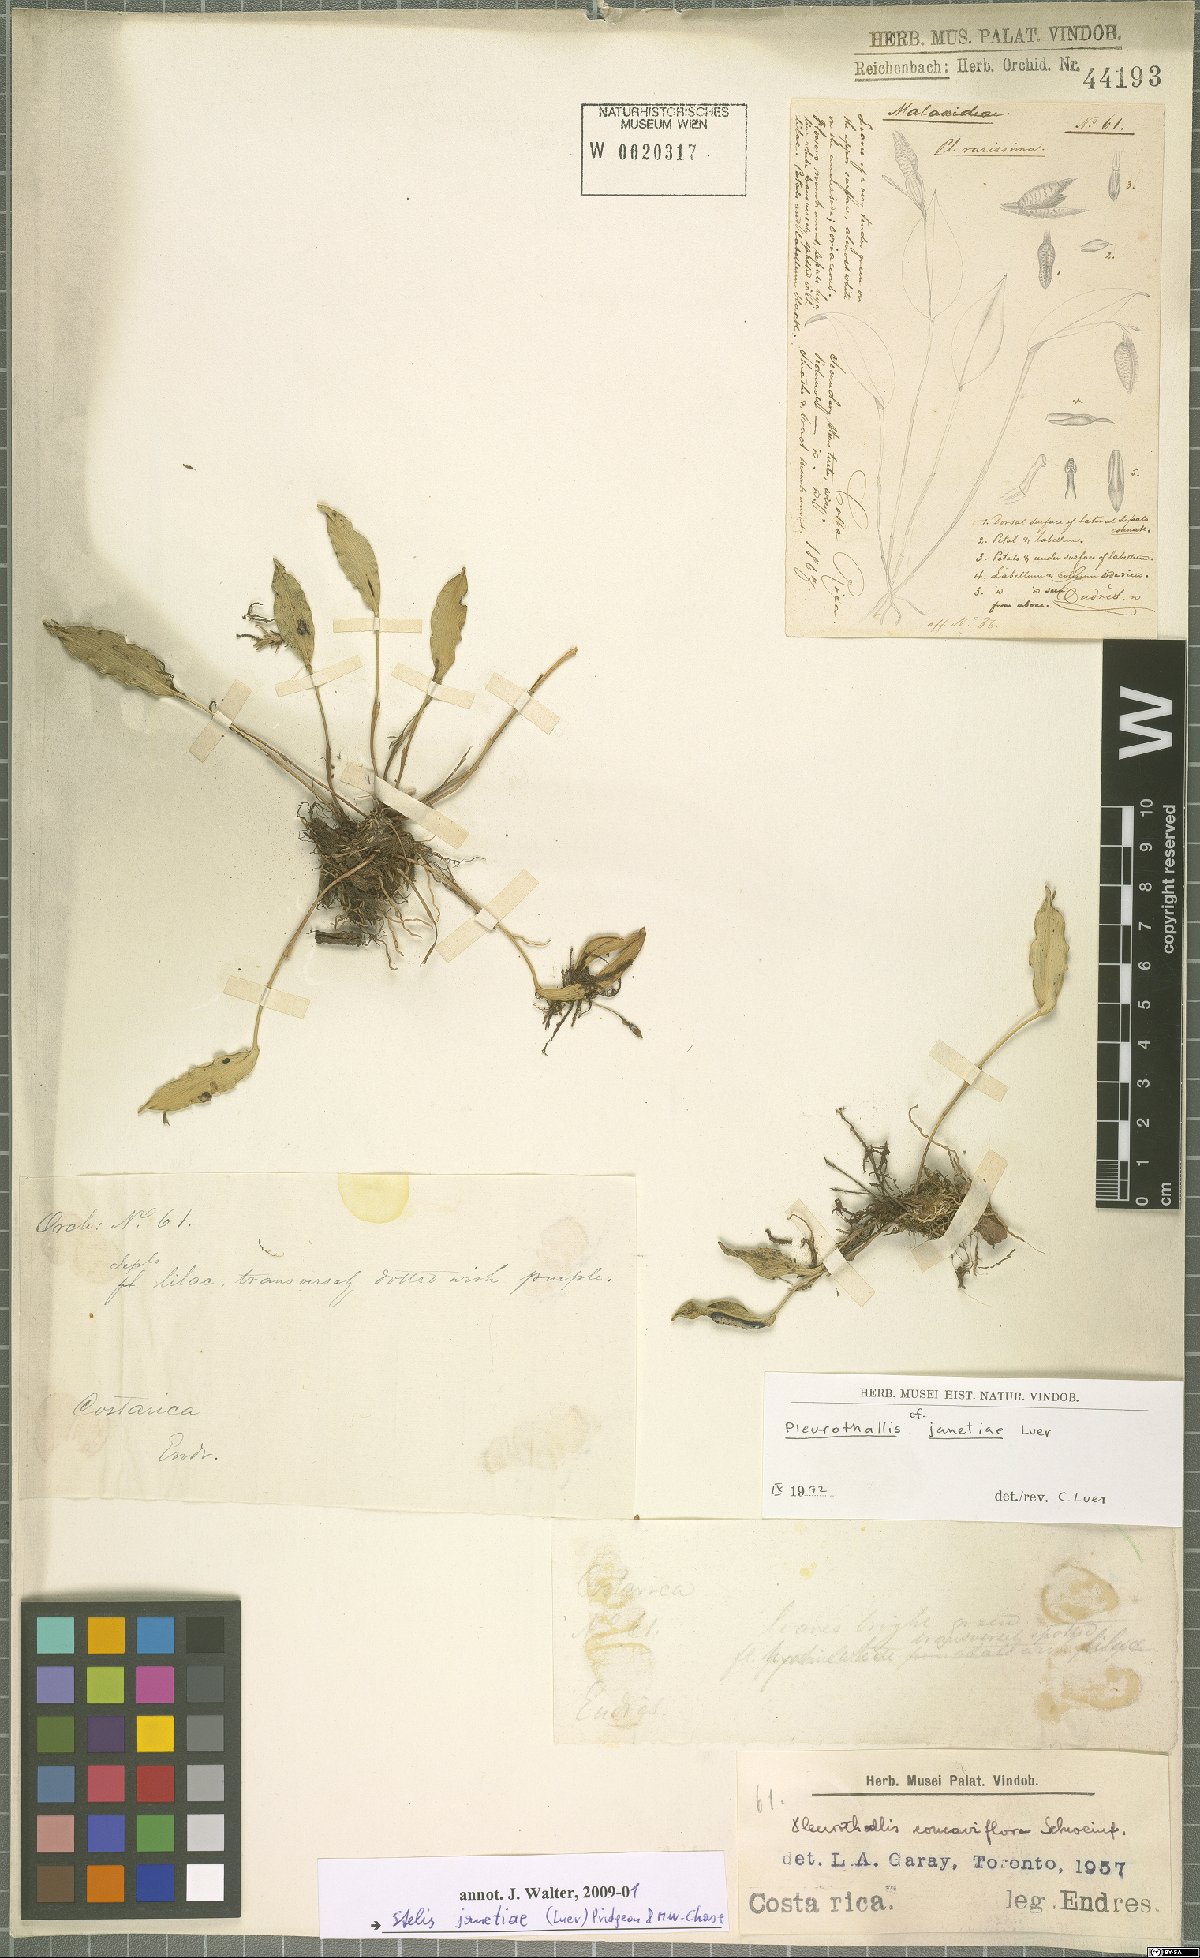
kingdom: Plantae
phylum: Tracheophyta
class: Liliopsida
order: Asparagales
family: Orchidaceae
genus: Stelis
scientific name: Stelis janetiae
